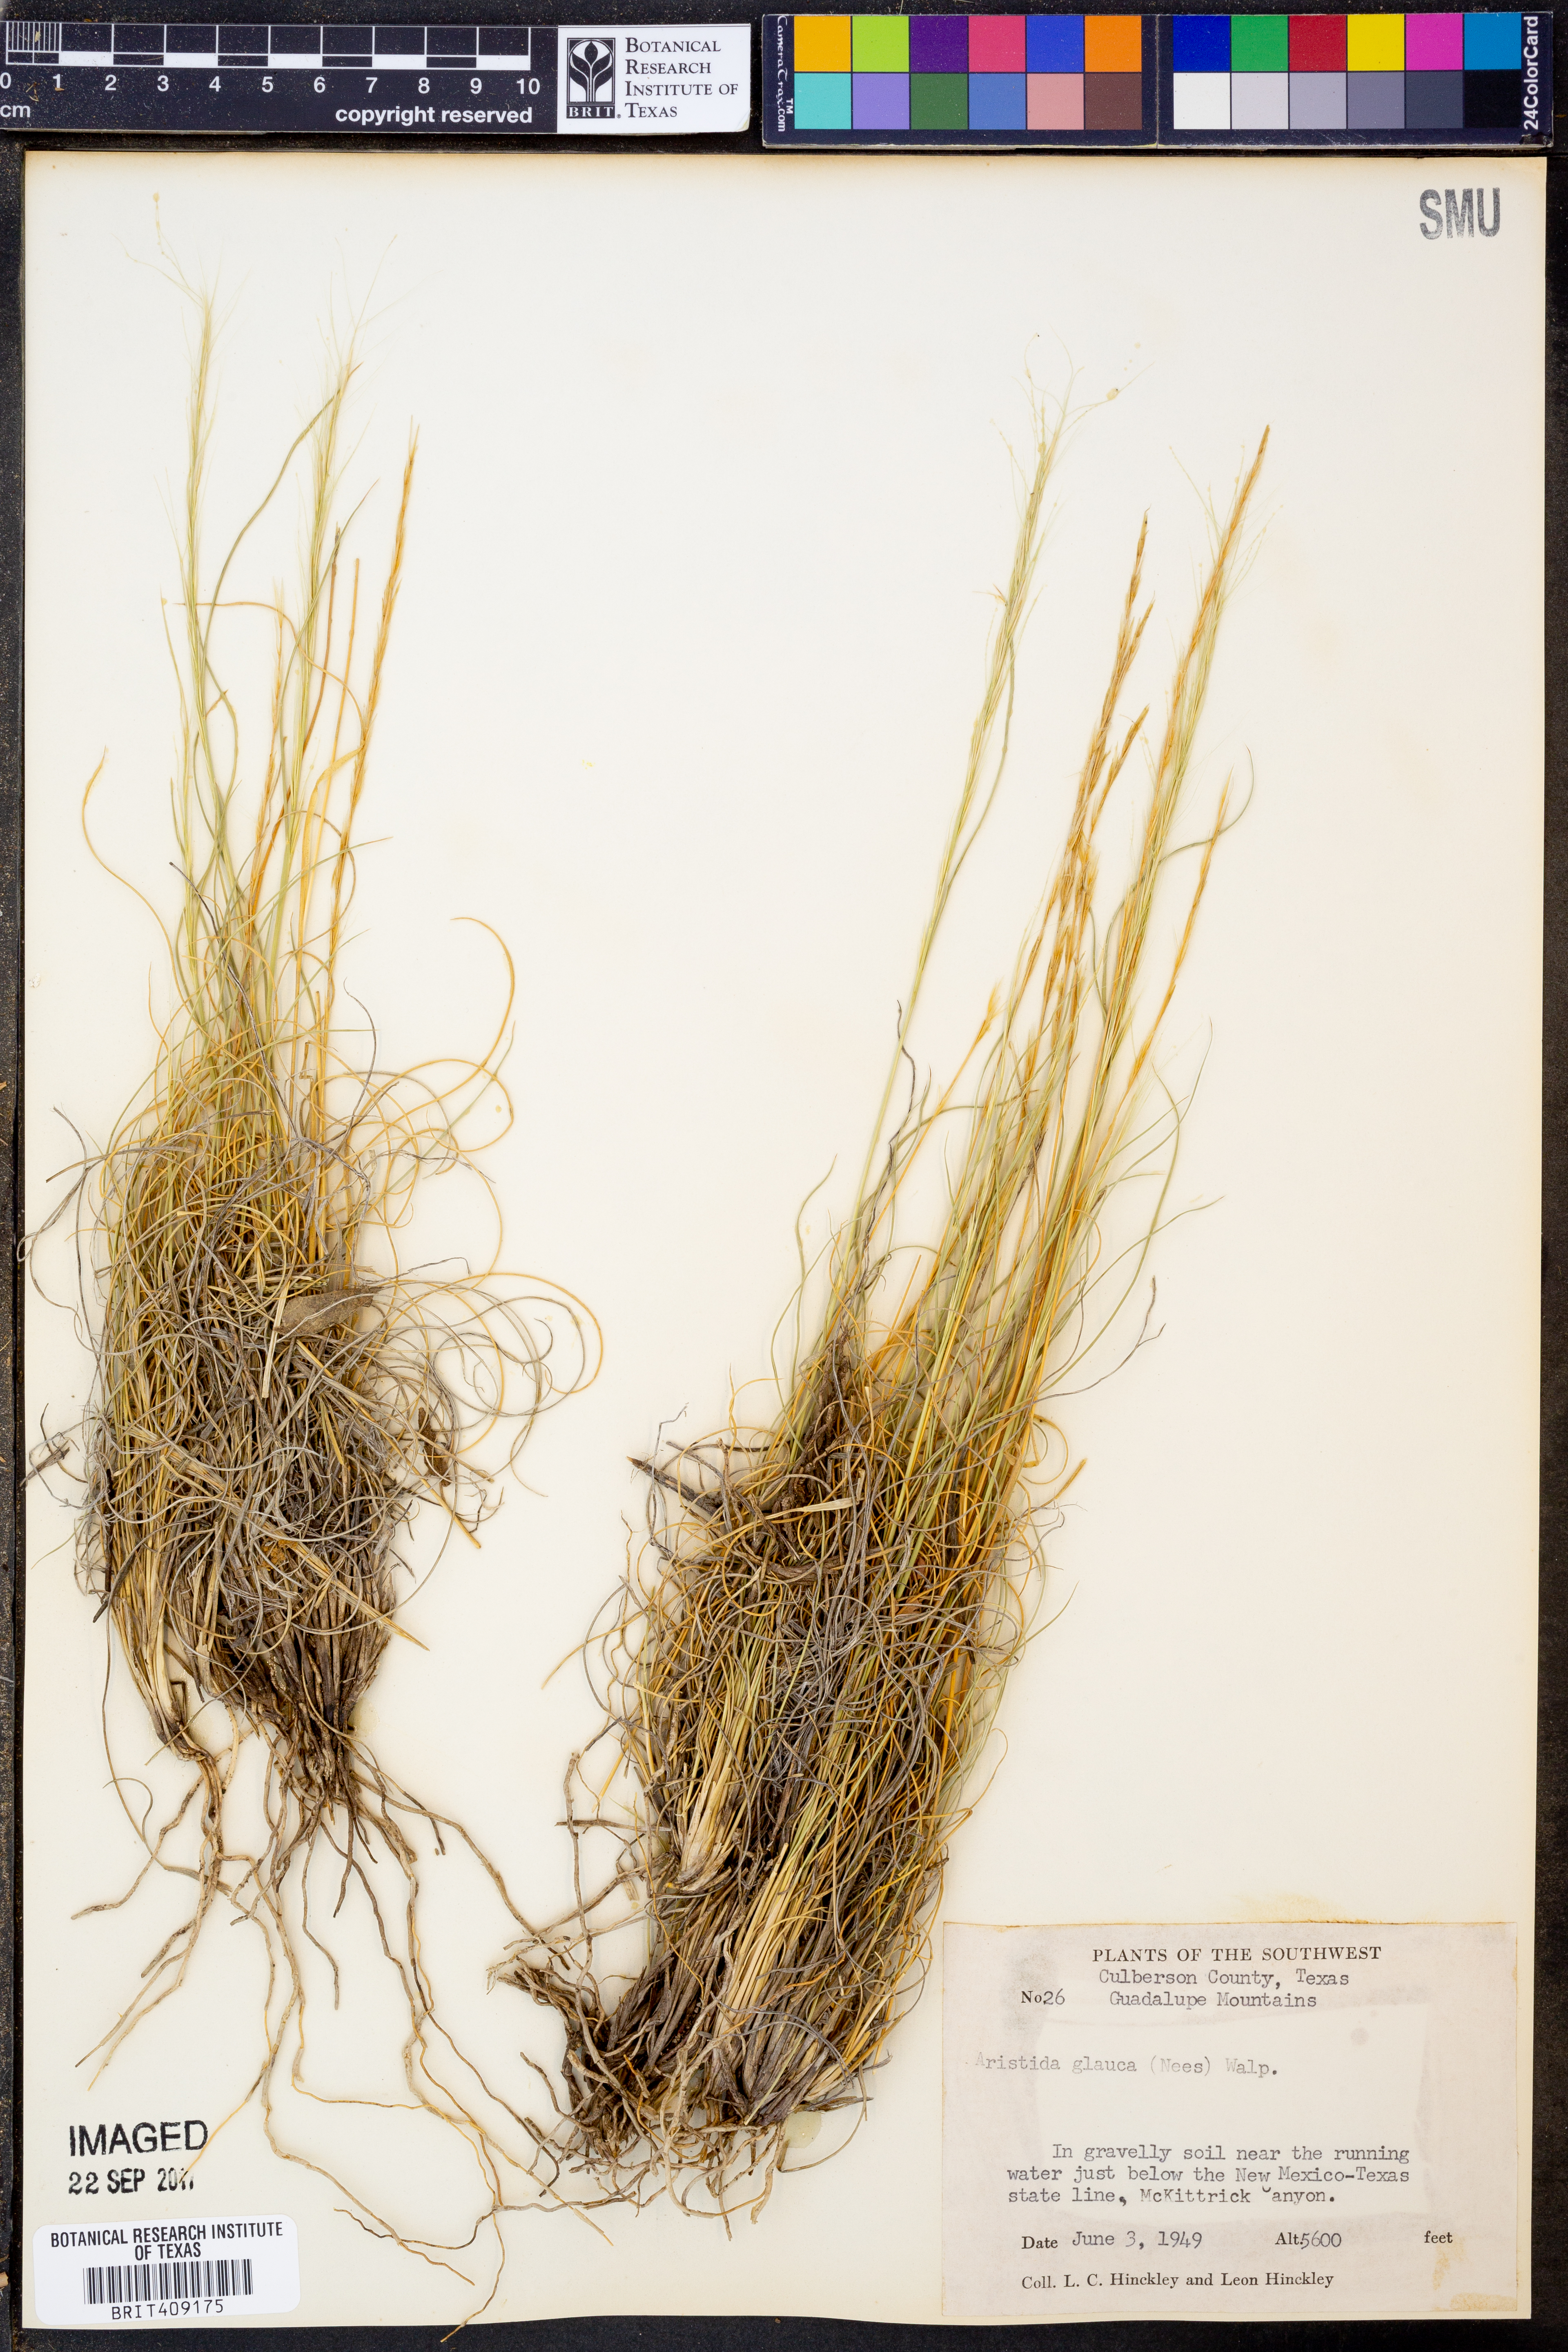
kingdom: Plantae
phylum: Tracheophyta
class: Liliopsida
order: Poales
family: Poaceae
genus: Aristida
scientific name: Aristida glauca
